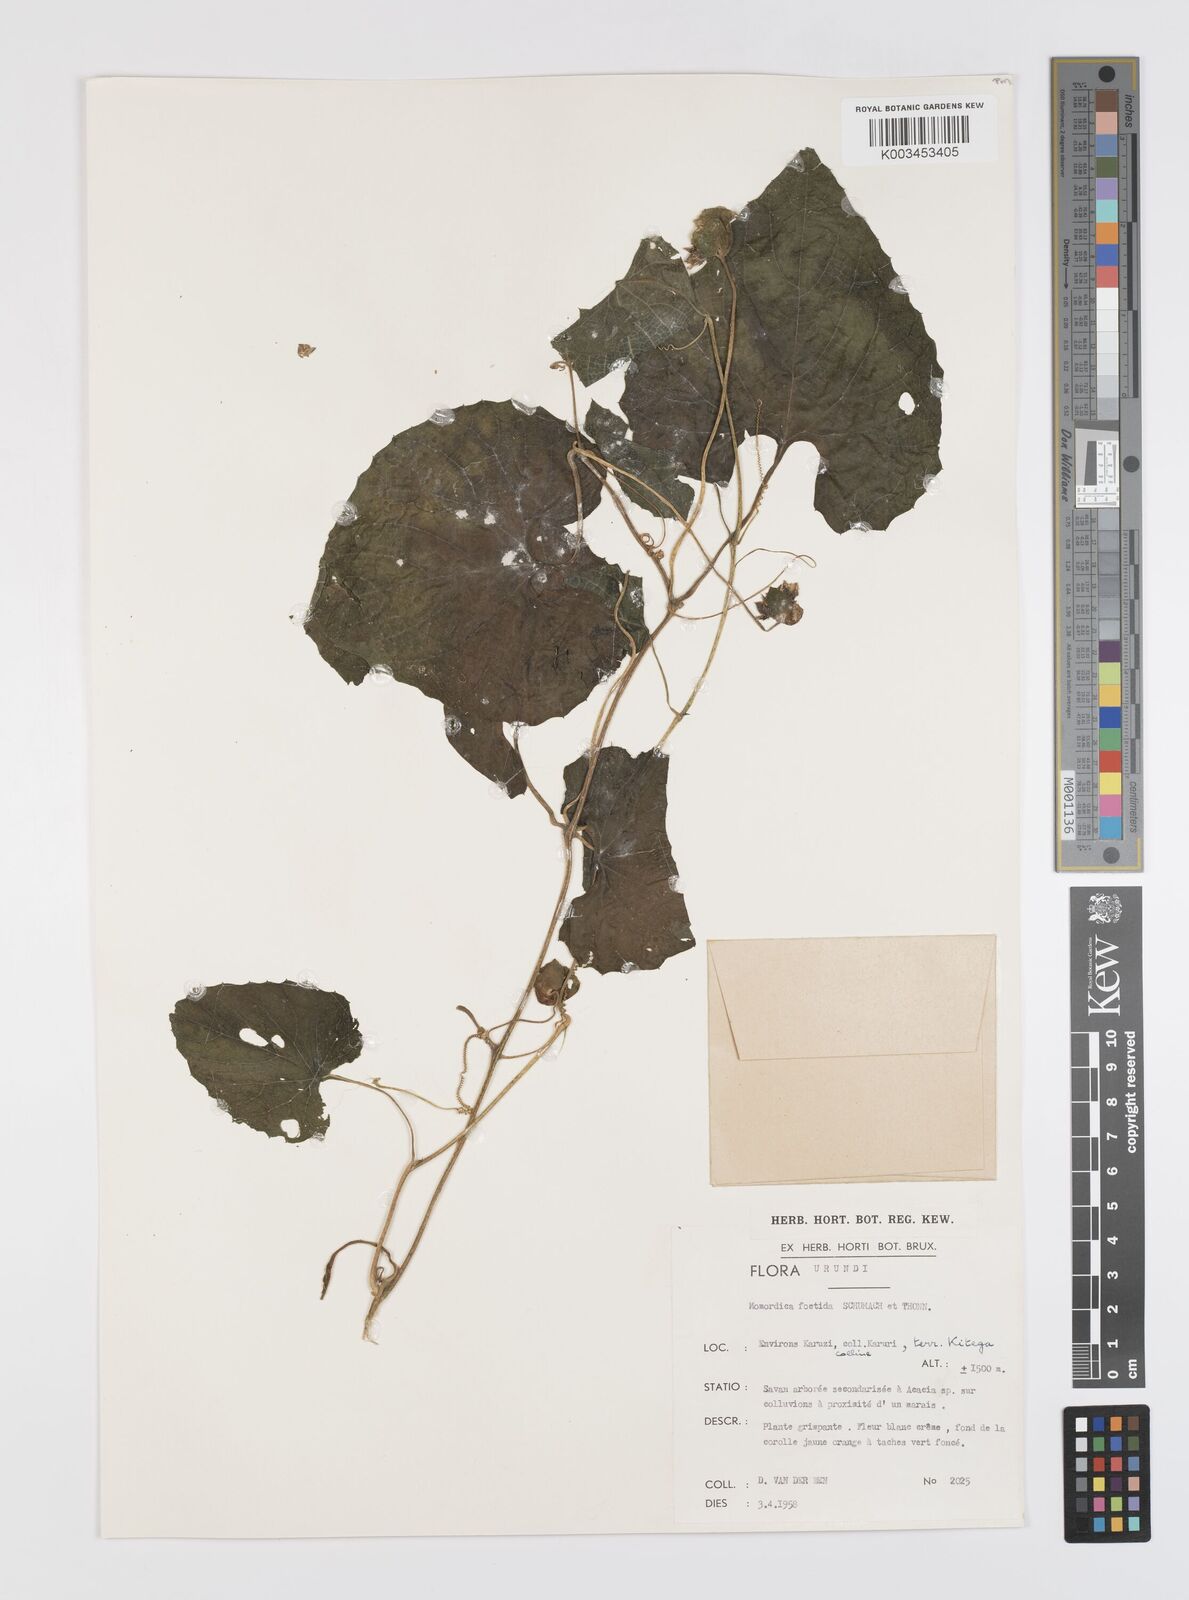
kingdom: Plantae
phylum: Tracheophyta
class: Magnoliopsida
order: Cucurbitales
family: Cucurbitaceae
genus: Momordica
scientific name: Momordica foetida
